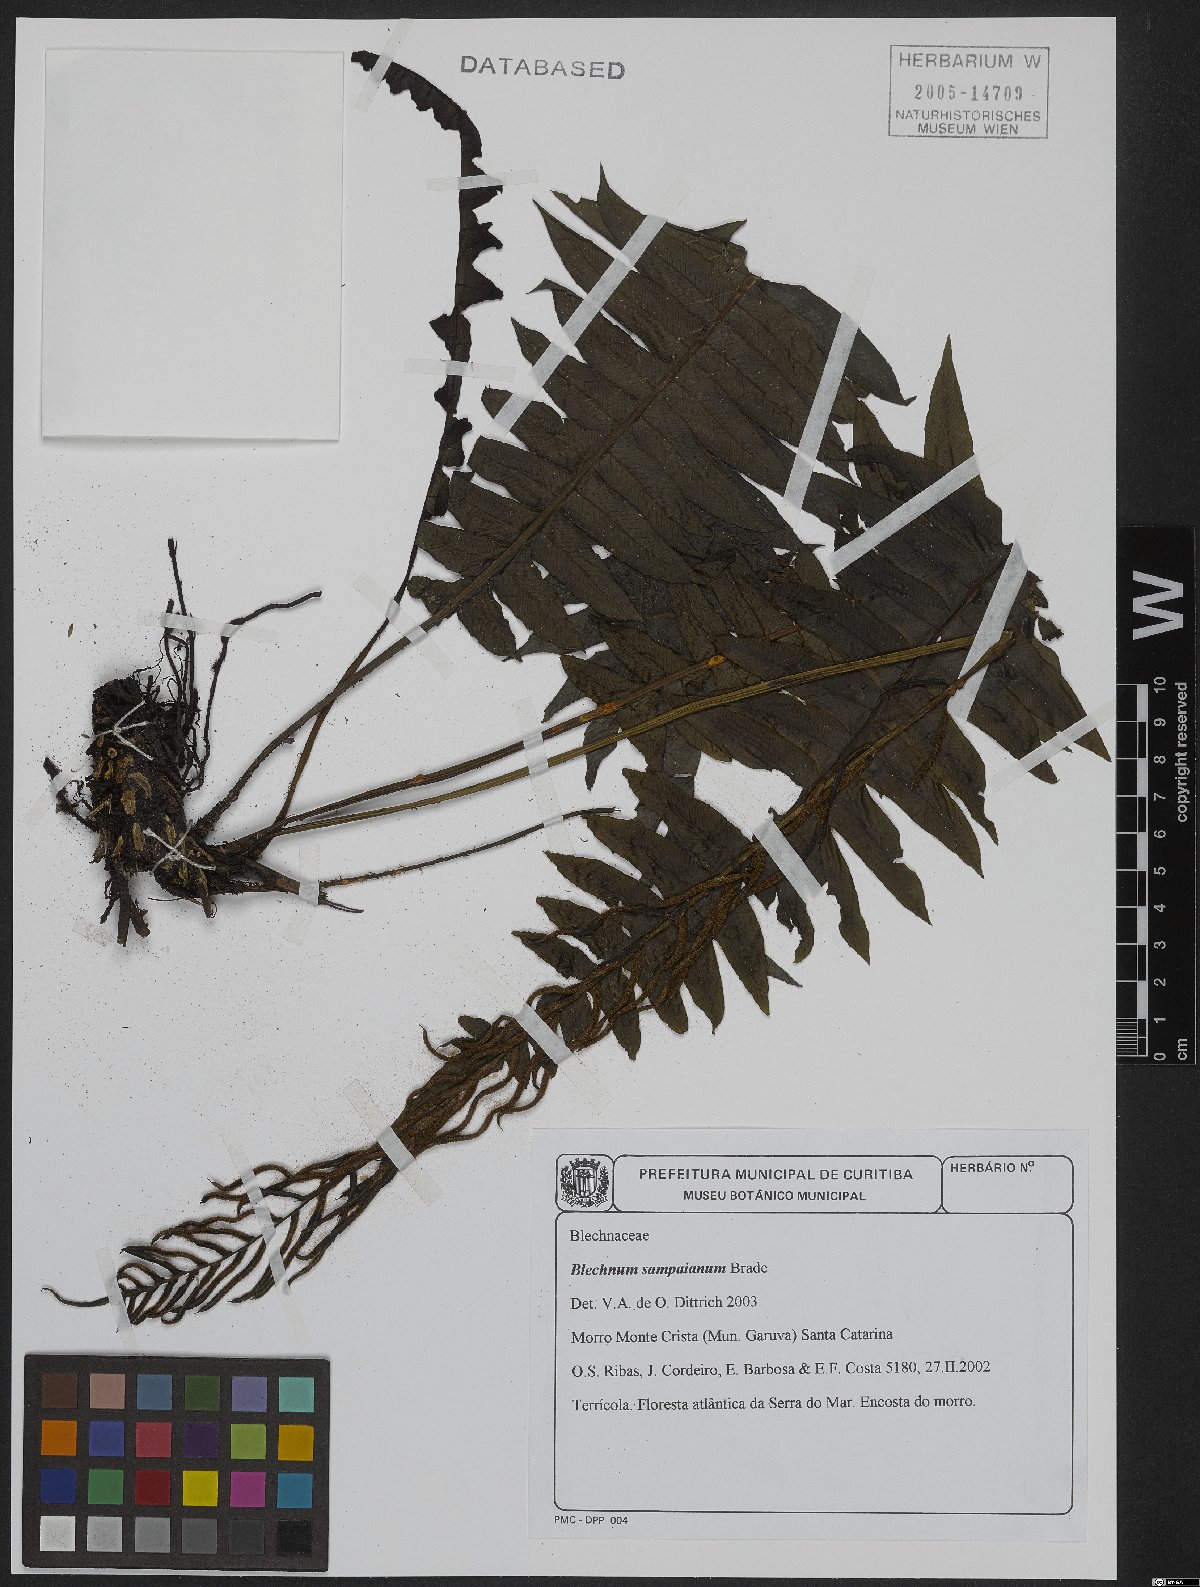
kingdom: Plantae
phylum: Tracheophyta
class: Polypodiopsida
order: Polypodiales
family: Blechnaceae
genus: Cranfillia
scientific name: Cranfillia sampaioana
